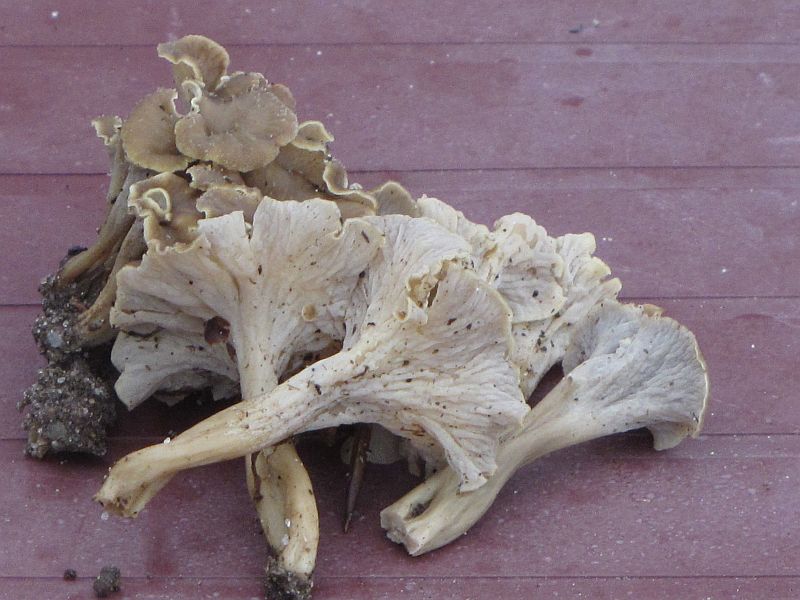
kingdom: Fungi
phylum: Basidiomycota
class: Agaricomycetes
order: Cantharellales
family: Hydnaceae
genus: Craterellus
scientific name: Craterellus undulatus
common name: liden kantarel
